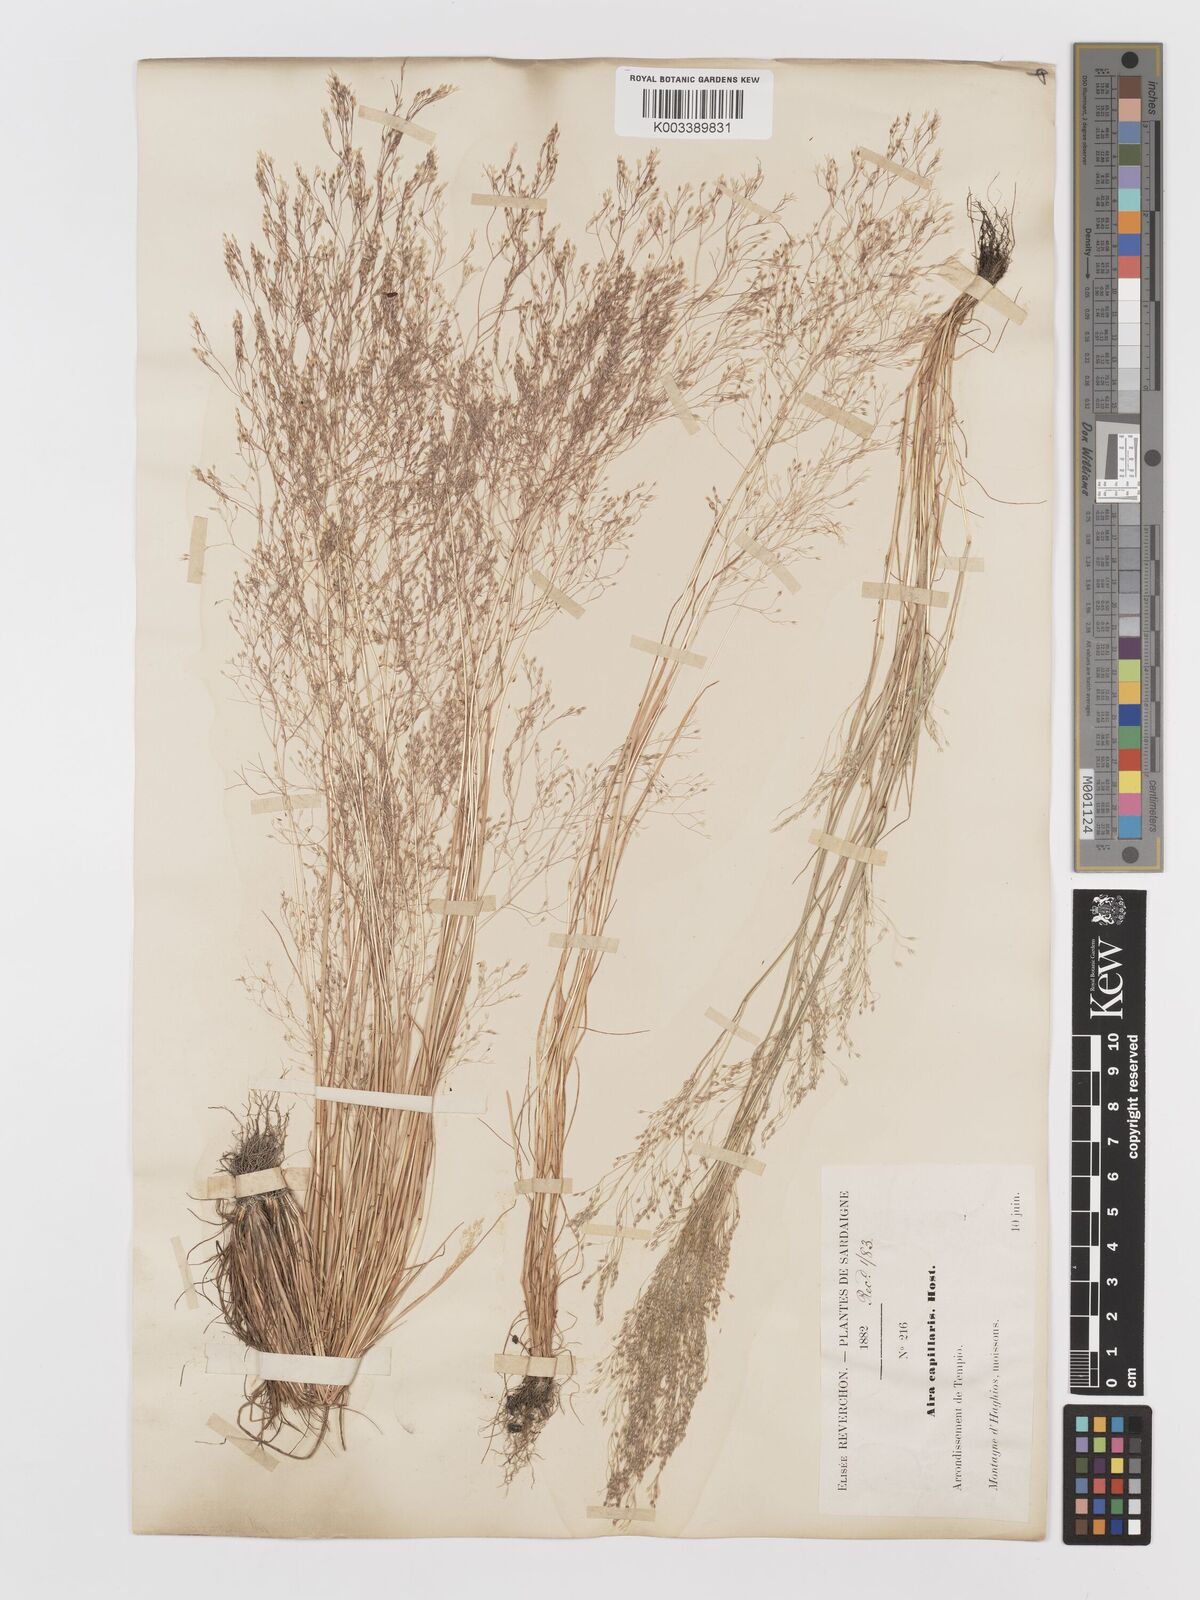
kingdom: Plantae
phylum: Tracheophyta
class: Liliopsida
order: Poales
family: Poaceae
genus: Aira
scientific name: Aira elegans
